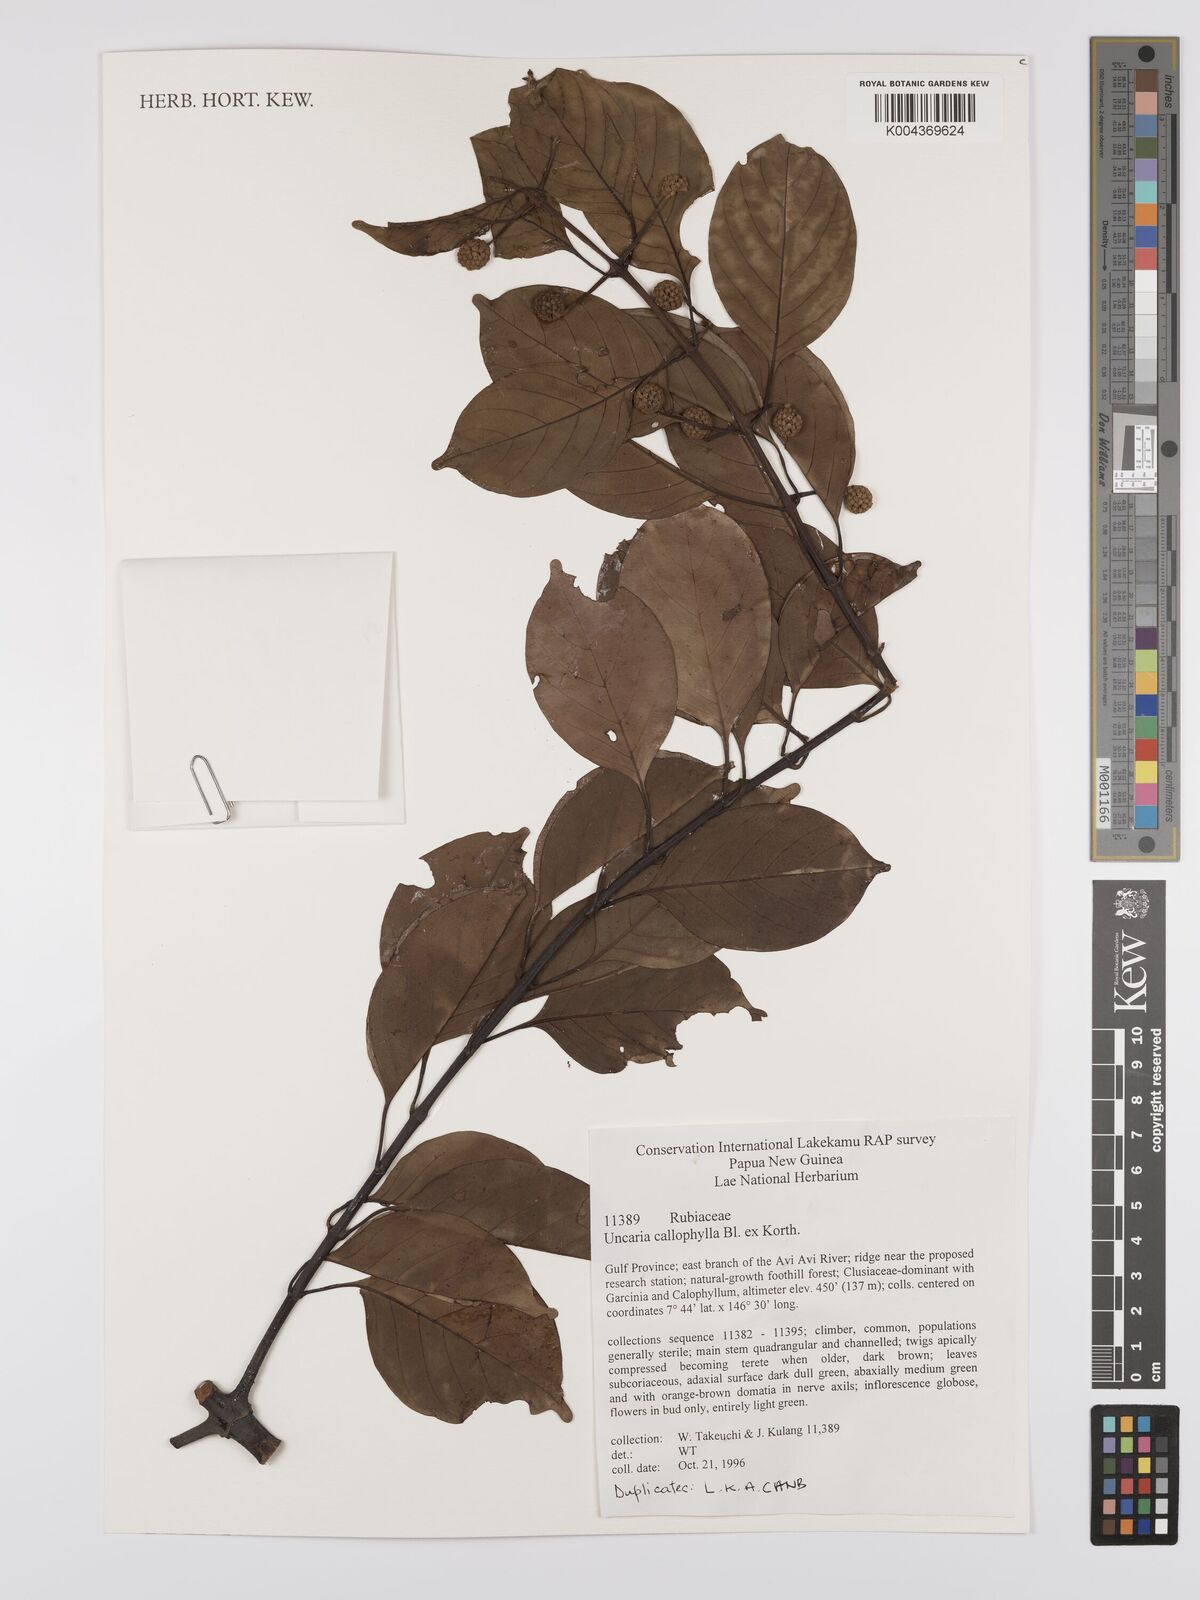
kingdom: Plantae
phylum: Tracheophyta
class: Magnoliopsida
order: Gentianales
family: Rubiaceae
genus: Uncaria
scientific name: Uncaria callophylla
